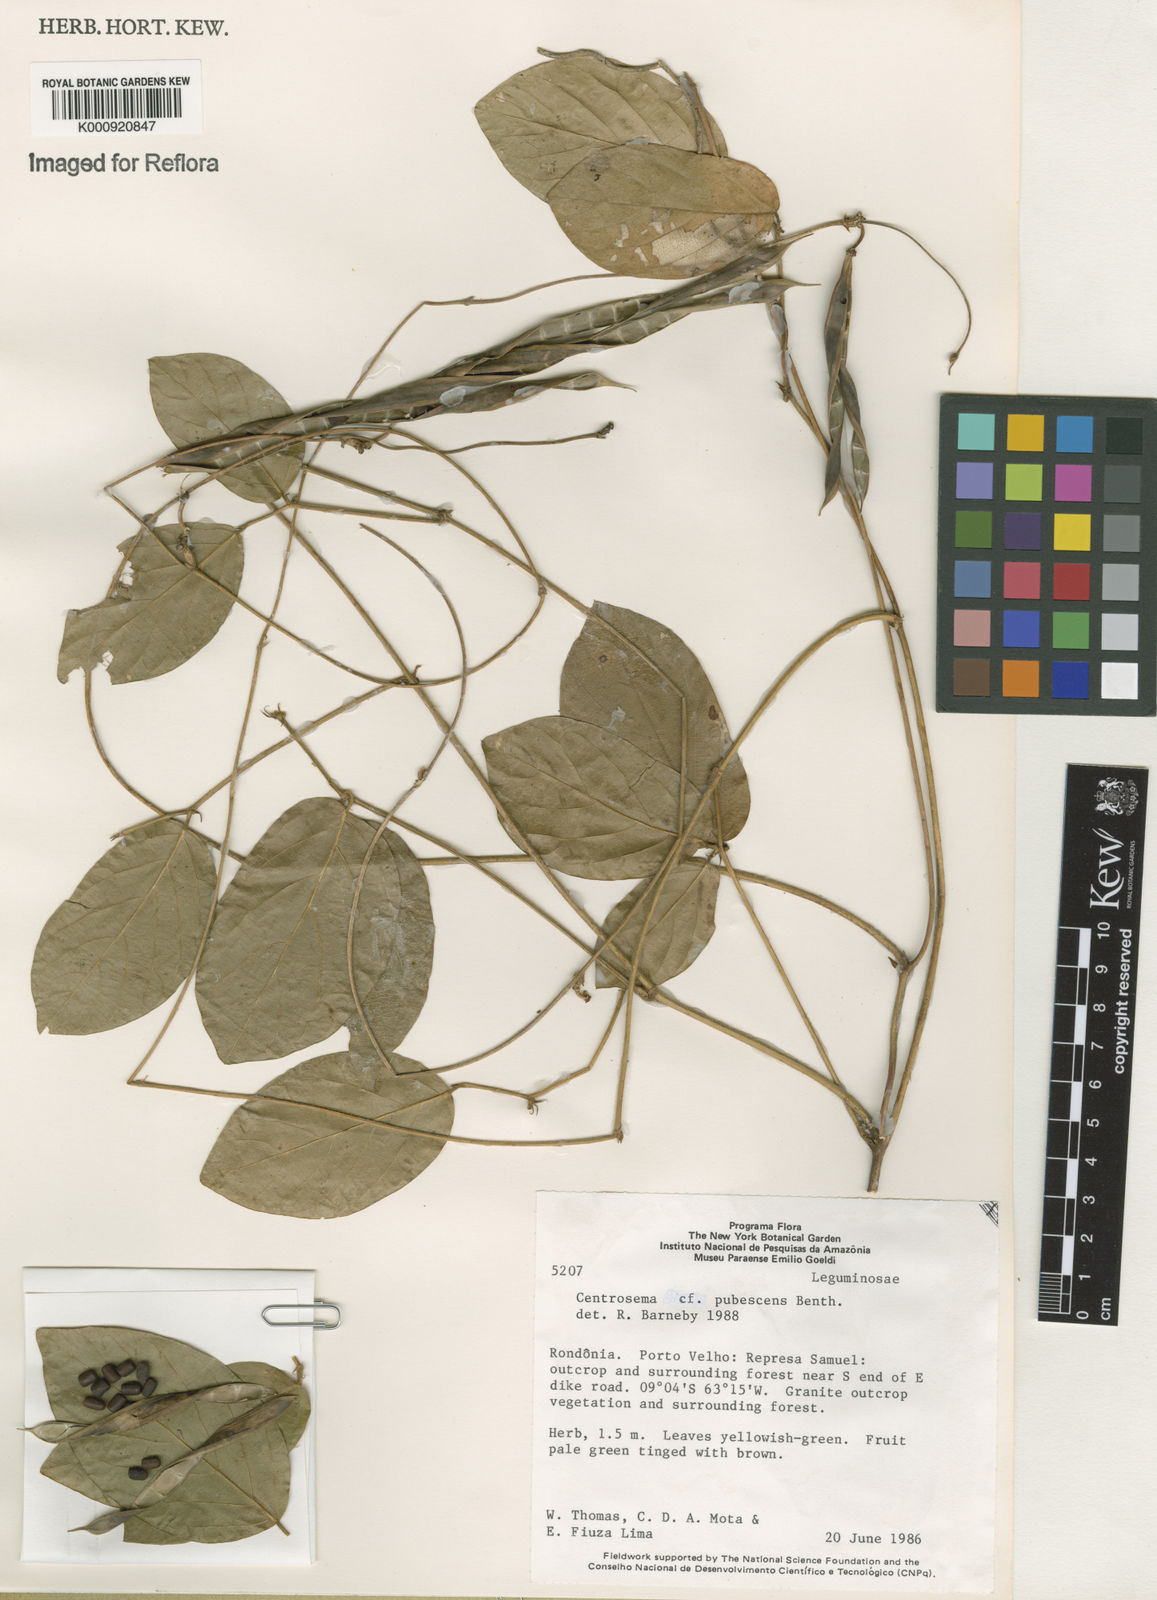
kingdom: Plantae
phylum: Tracheophyta
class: Magnoliopsida
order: Fabales
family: Fabaceae
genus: Centrosema
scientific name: Centrosema pubescens
